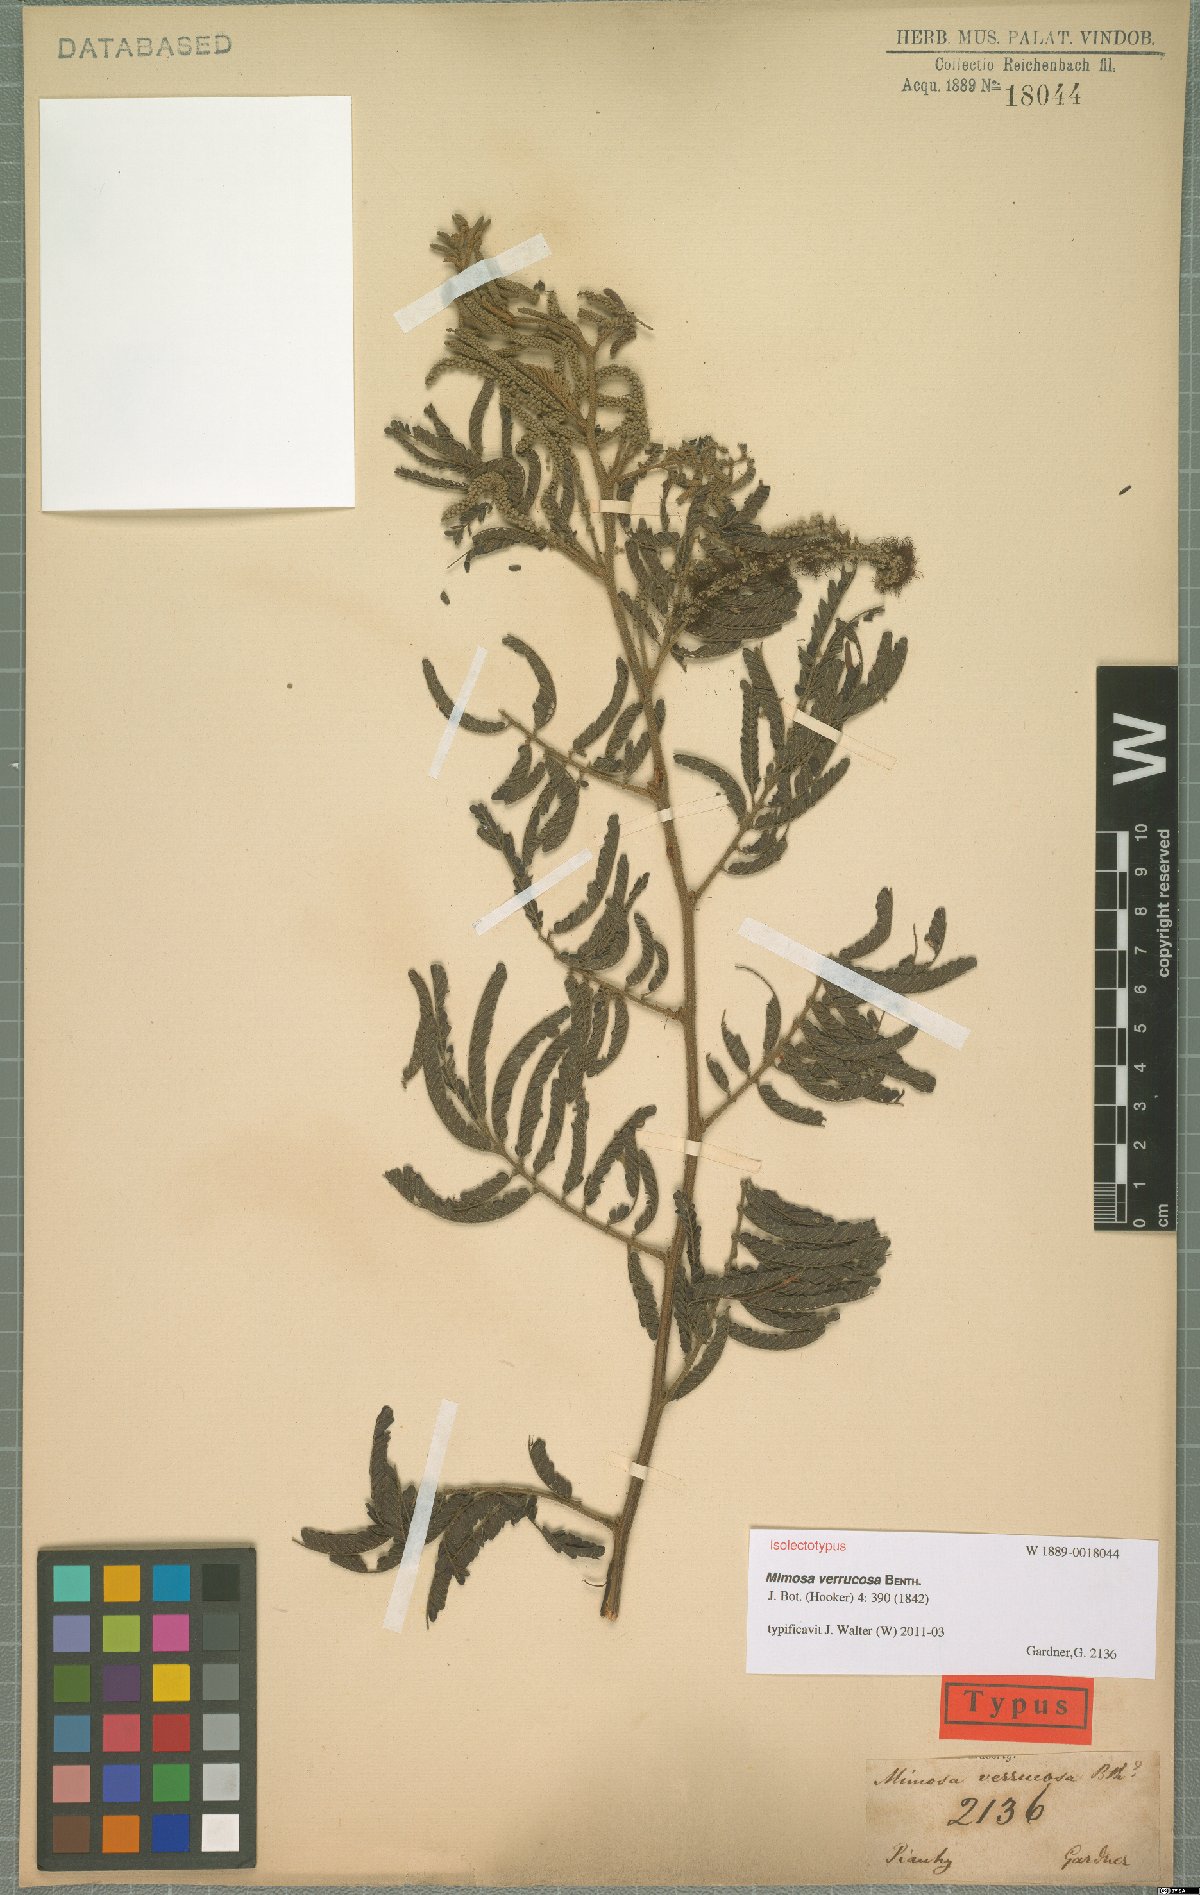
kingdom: Plantae
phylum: Tracheophyta
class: Magnoliopsida
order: Fabales
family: Fabaceae
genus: Mimosa
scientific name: Mimosa verrucosa
